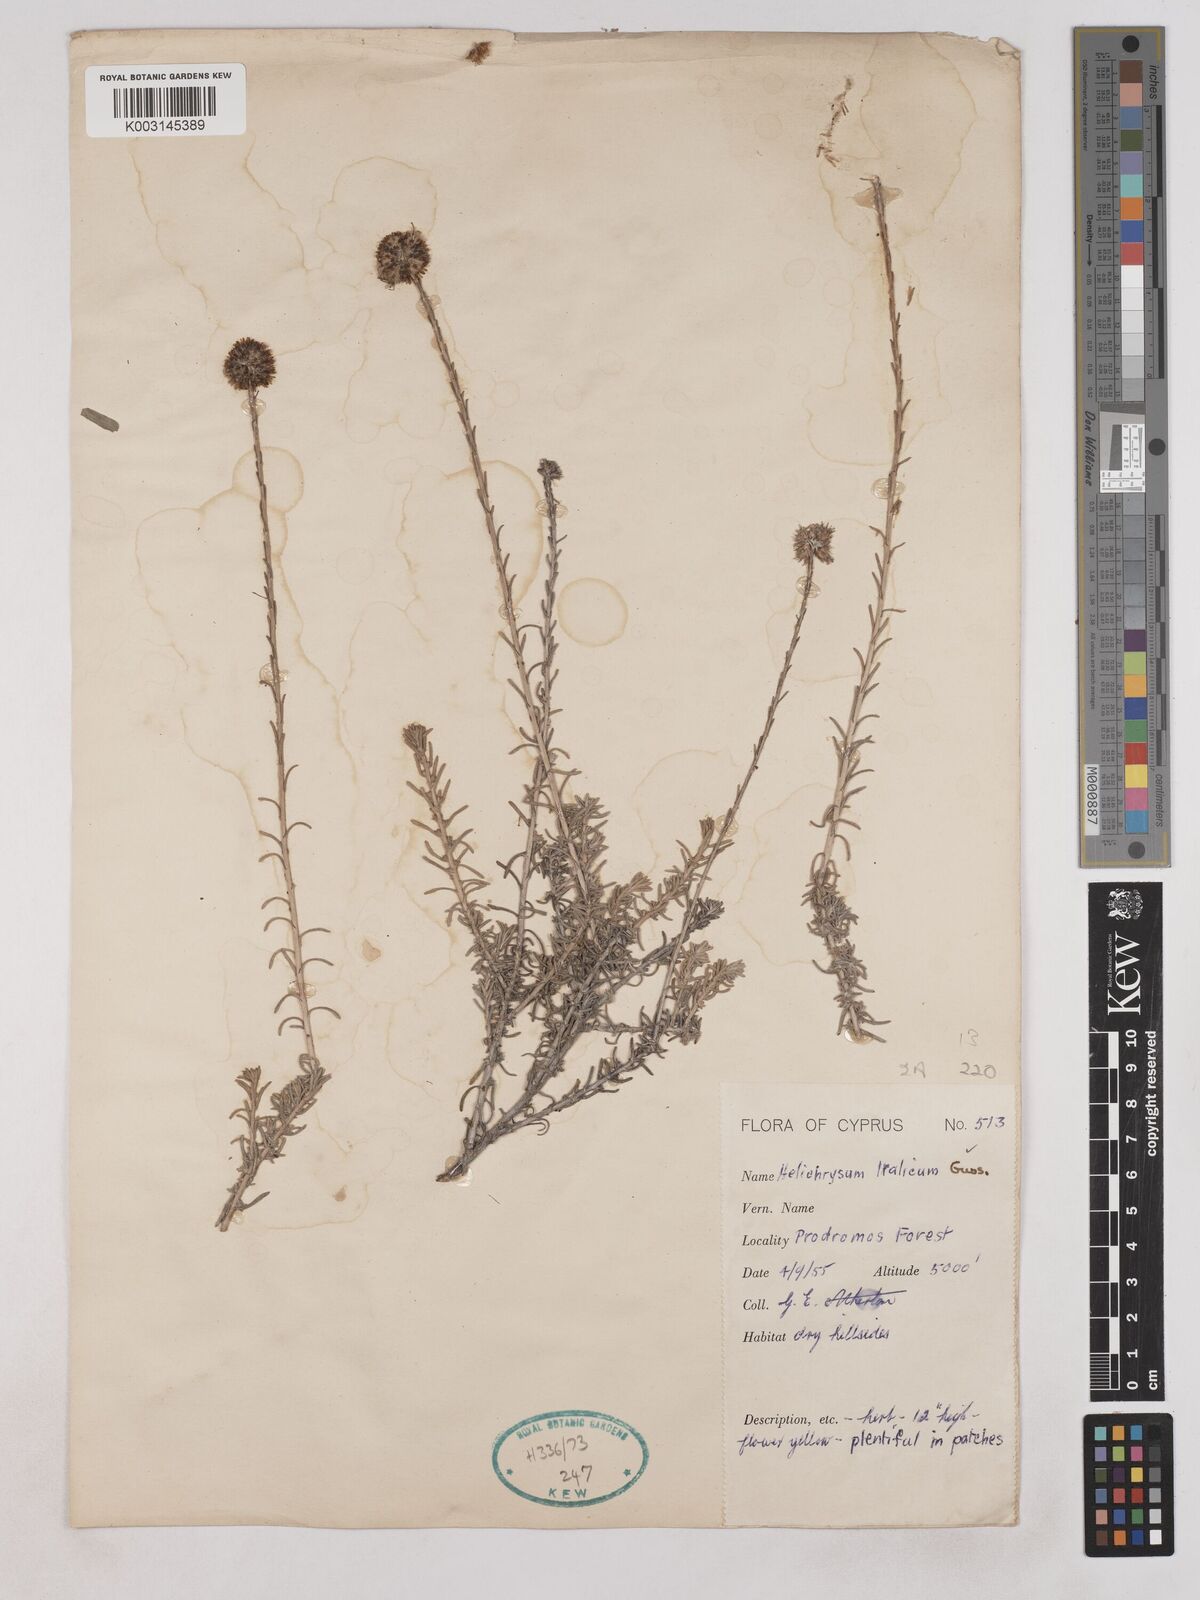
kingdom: Plantae
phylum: Tracheophyta
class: Magnoliopsida
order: Asterales
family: Asteraceae
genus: Helichrysum
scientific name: Helichrysum italicum
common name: Curryplant
